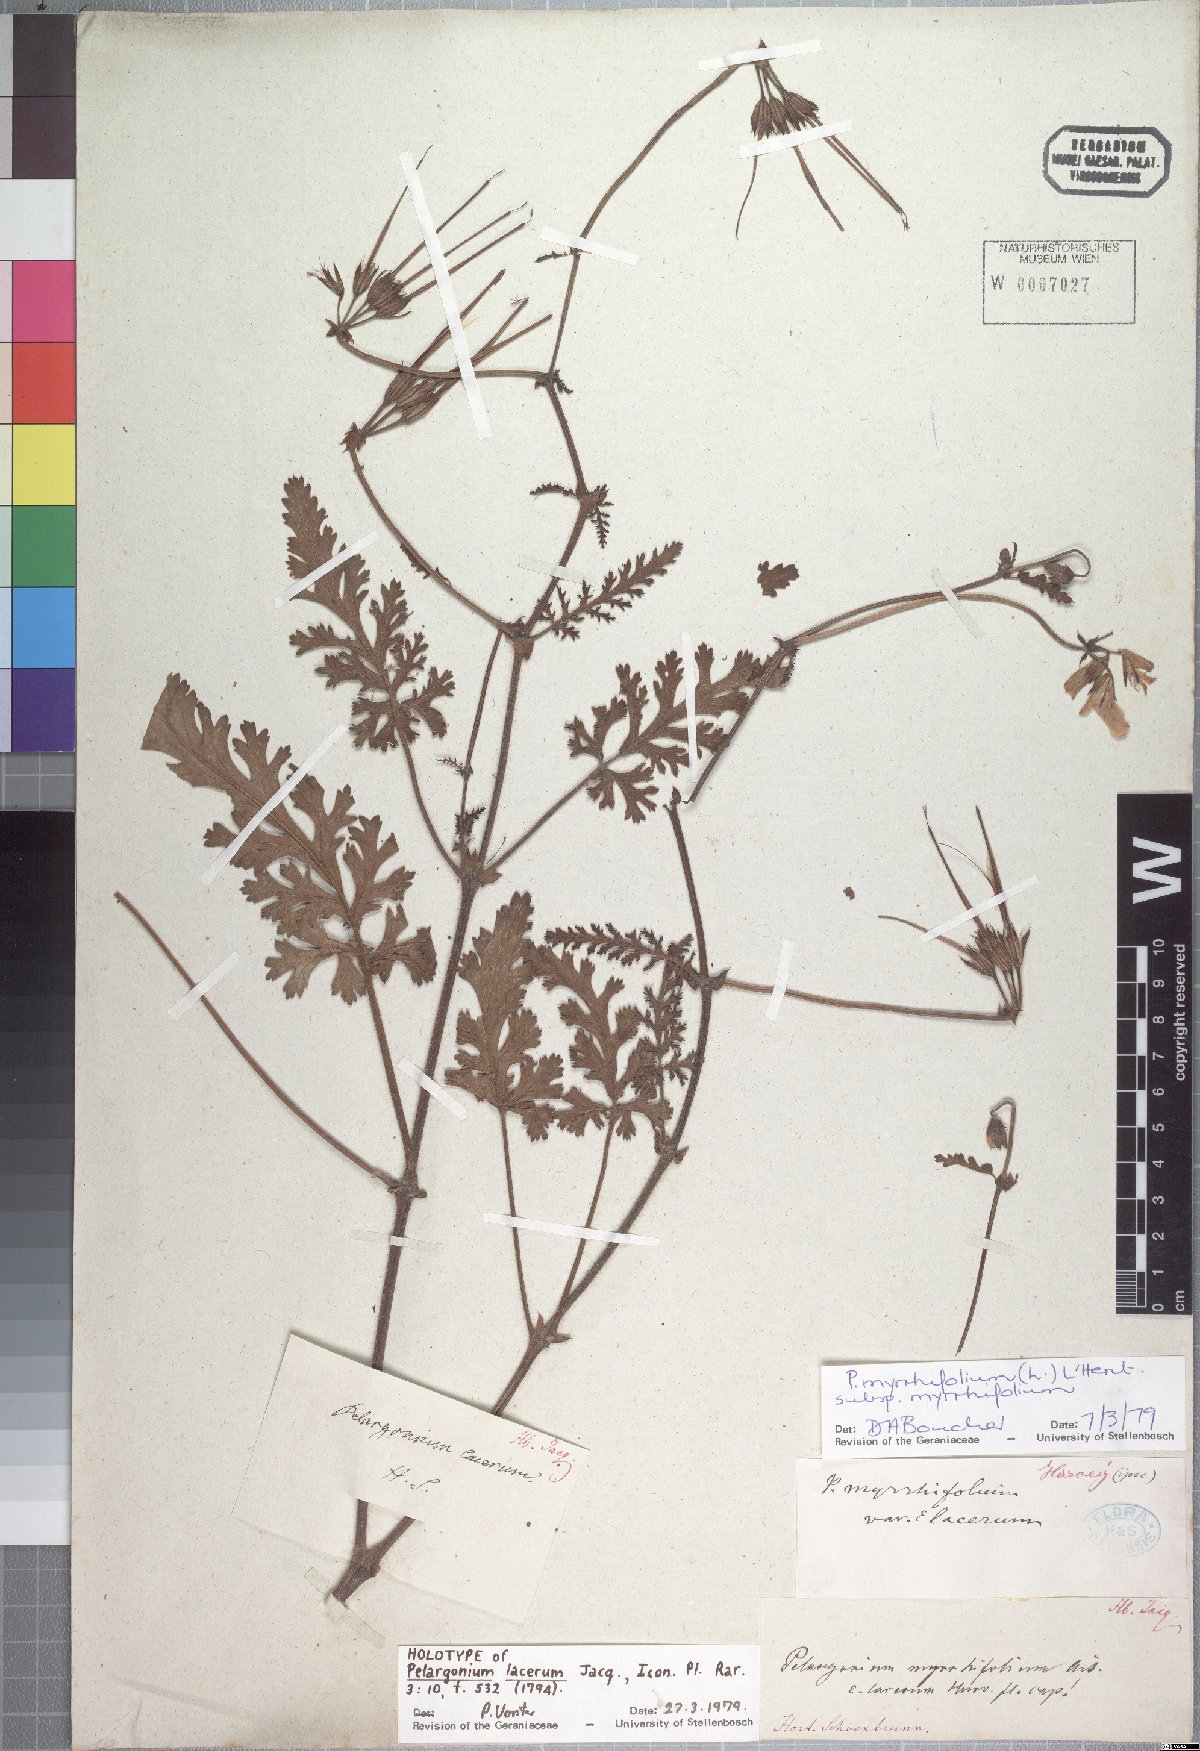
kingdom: Plantae
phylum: Tracheophyta
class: Magnoliopsida
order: Geraniales
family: Geraniaceae
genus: Pelargonium
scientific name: Pelargonium myrrhifolium
